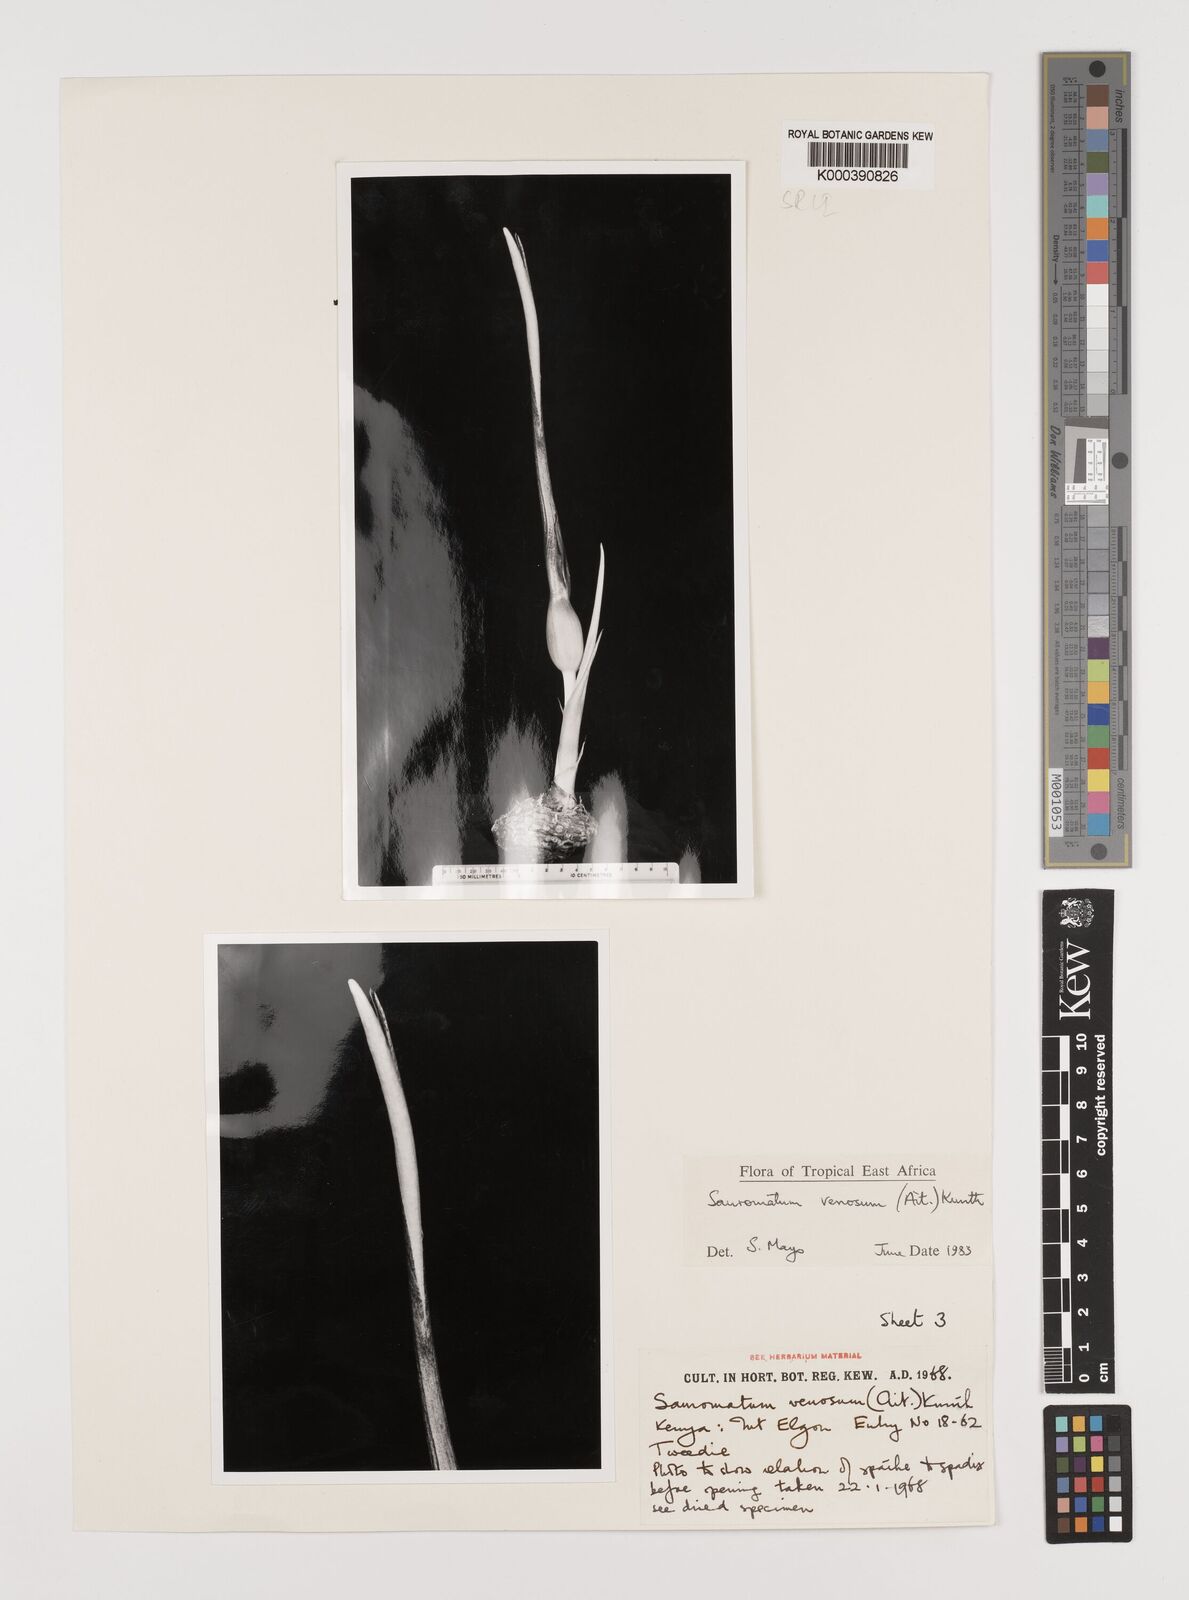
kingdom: Plantae
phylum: Tracheophyta
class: Liliopsida
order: Alismatales
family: Araceae
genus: Sauromatum
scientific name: Sauromatum venosum
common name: Voodoo lily
